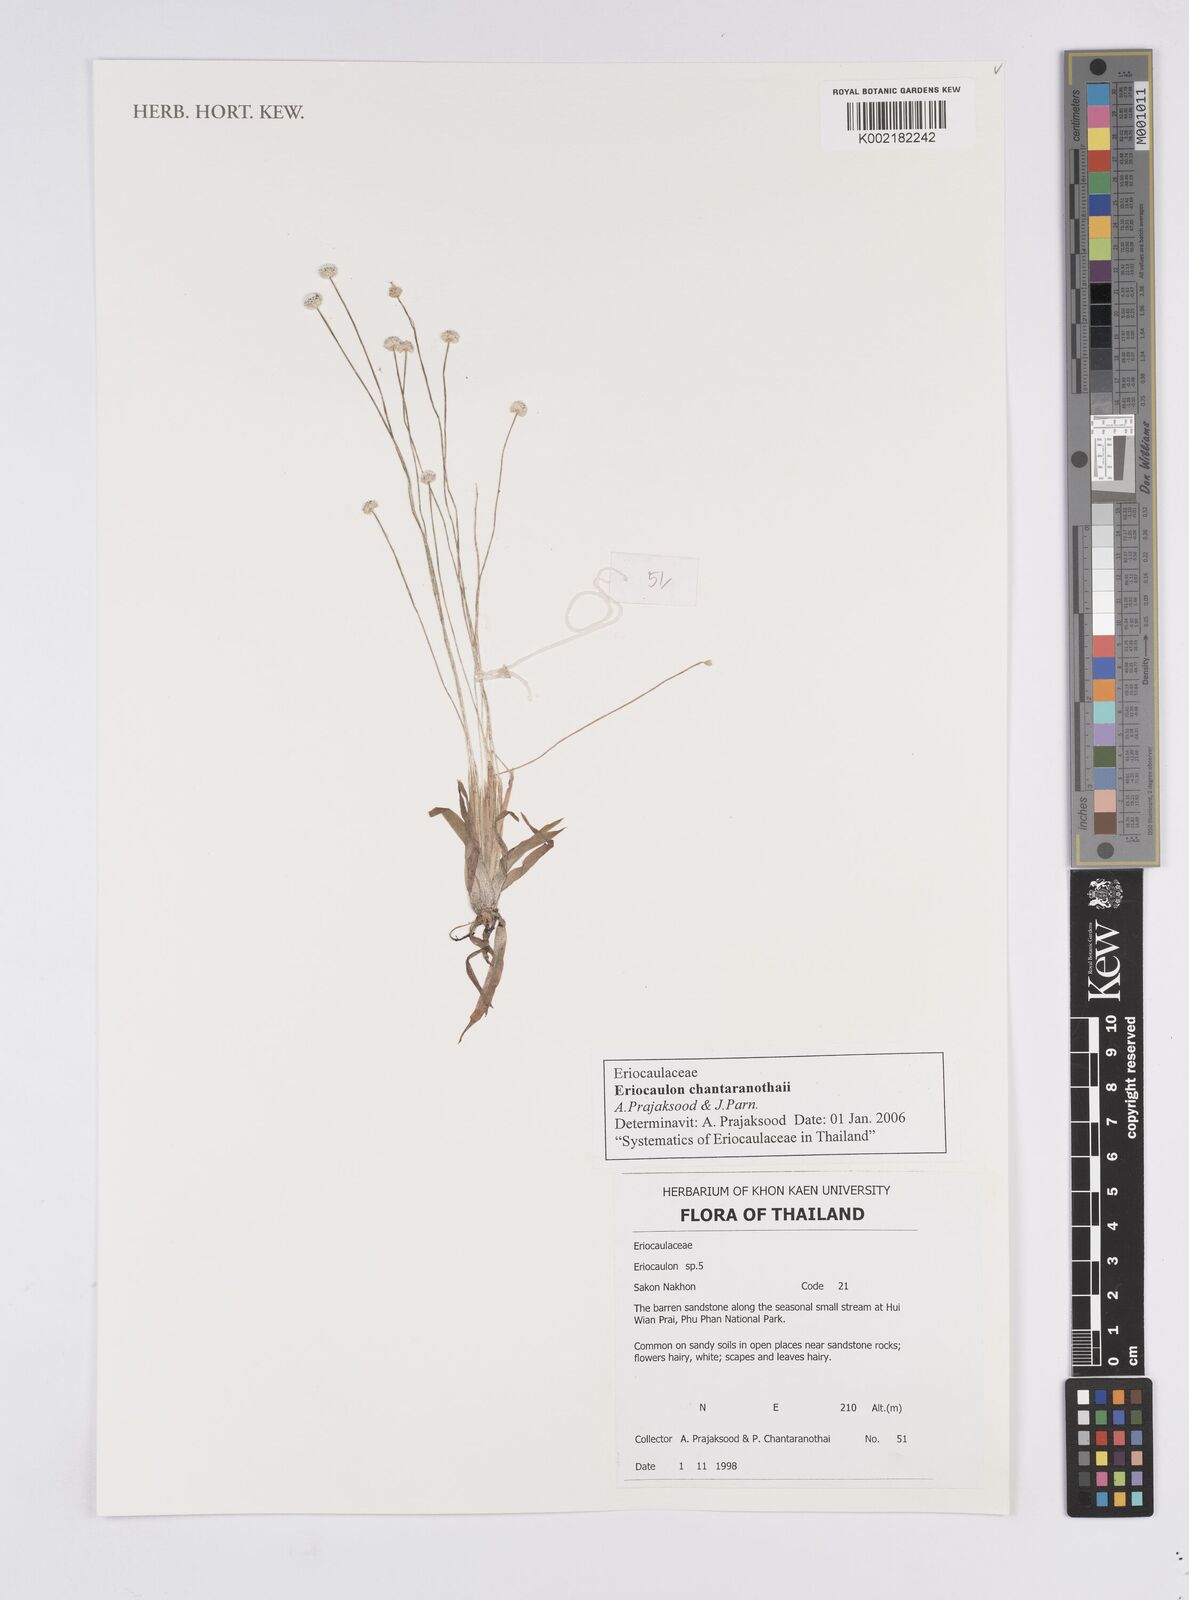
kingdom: Plantae
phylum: Tracheophyta
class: Liliopsida
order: Poales
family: Eriocaulaceae
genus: Eriocaulon
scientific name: Eriocaulon chantaranothaii
